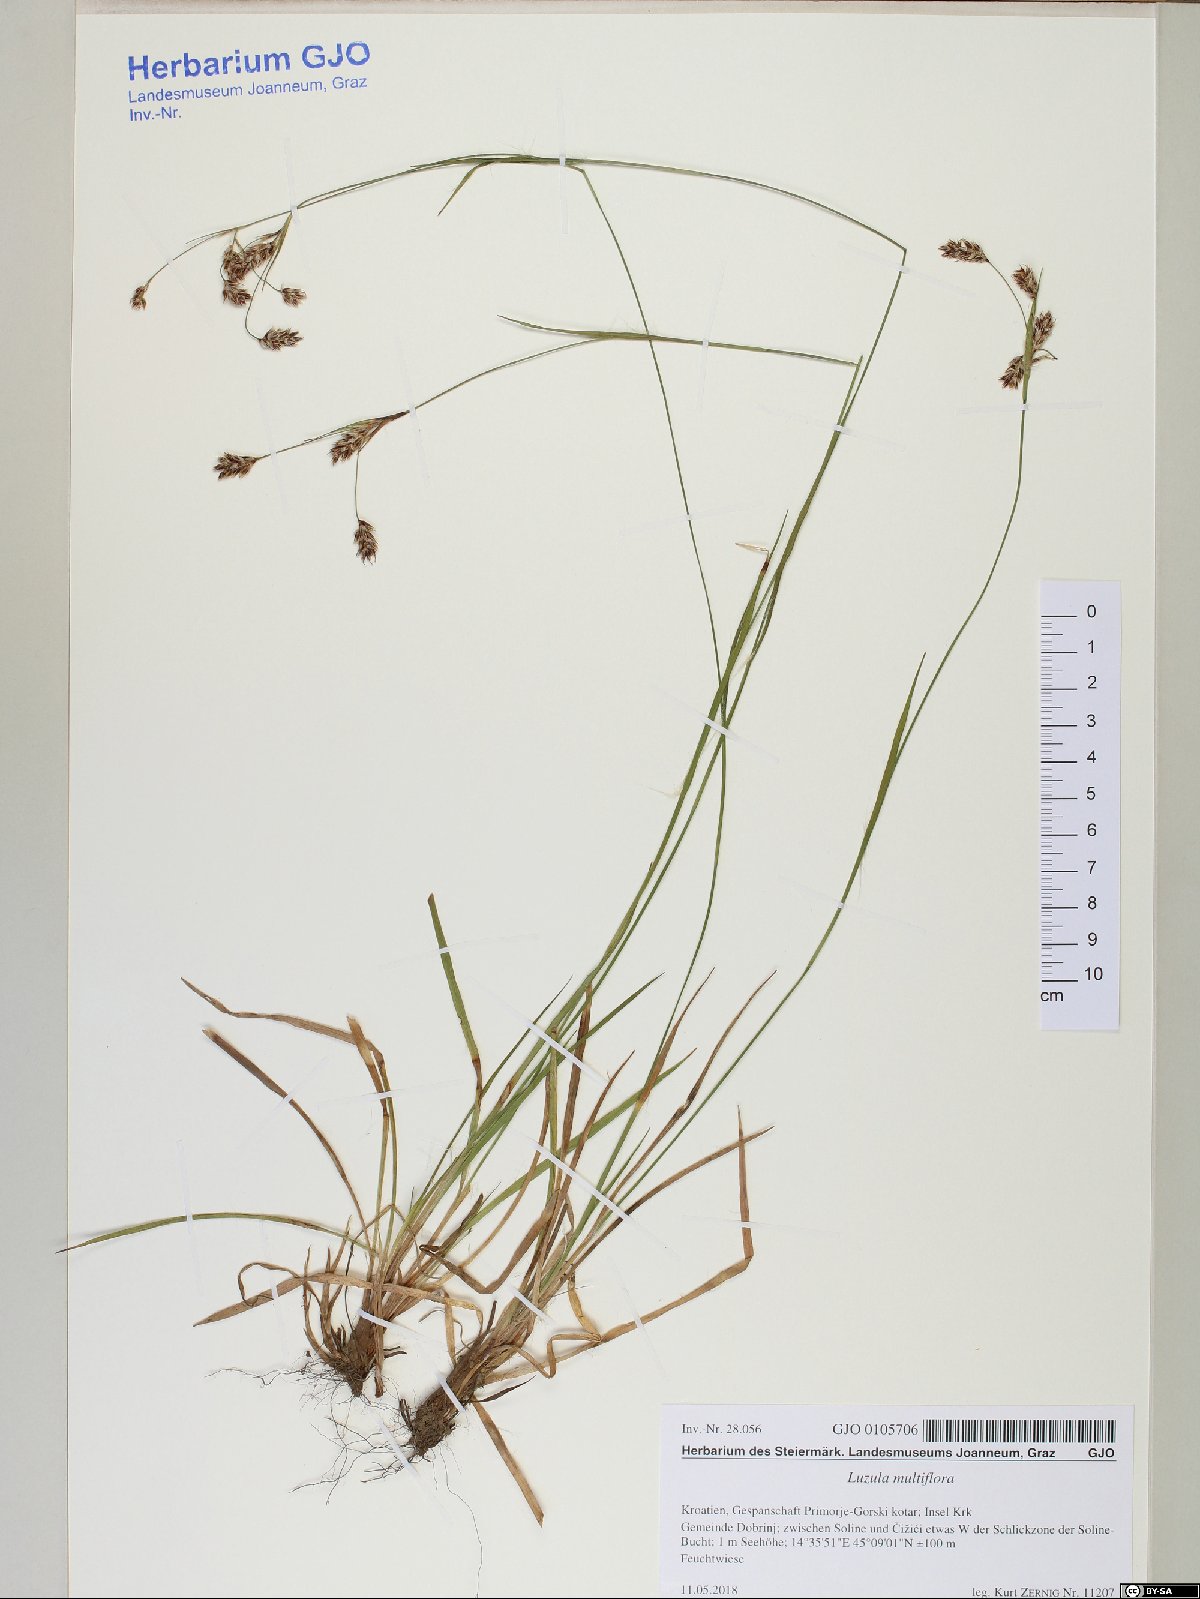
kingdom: Plantae
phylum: Tracheophyta
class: Liliopsida
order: Poales
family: Juncaceae
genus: Luzula
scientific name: Luzula multiflora
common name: Heath wood-rush
